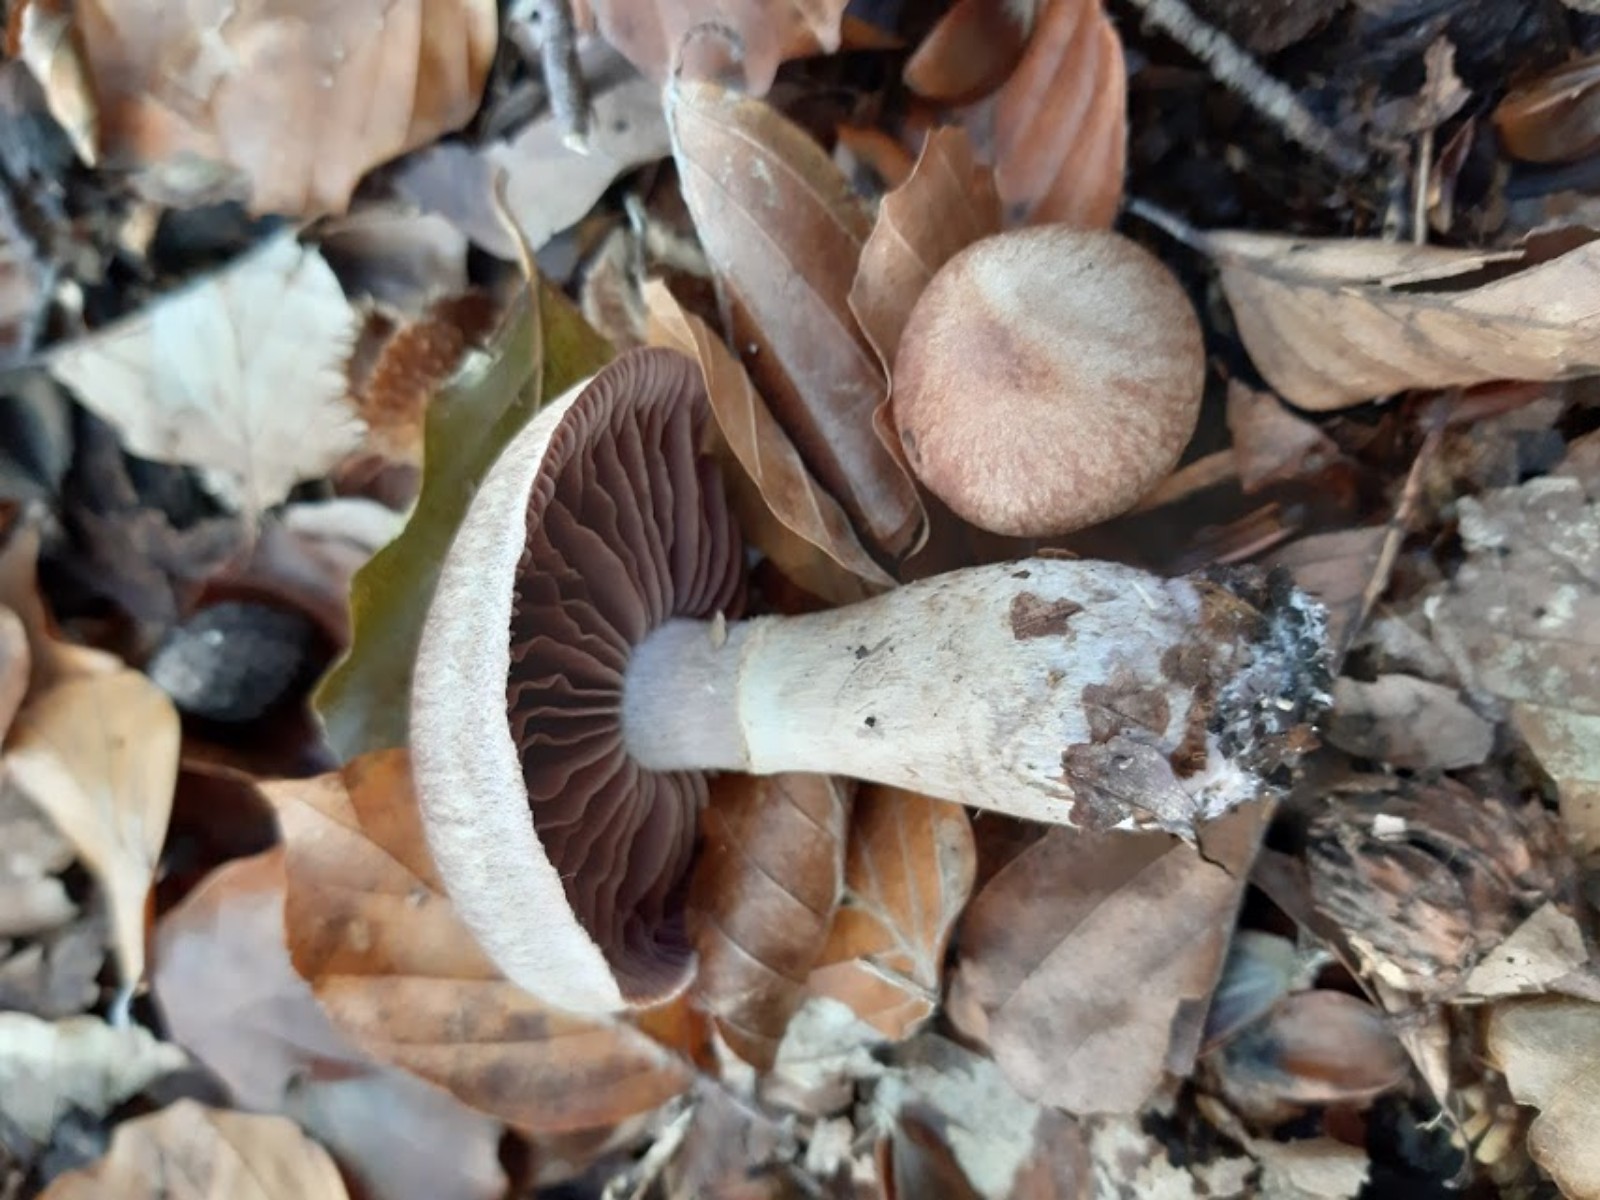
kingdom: Fungi
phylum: Basidiomycota
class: Agaricomycetes
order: Agaricales
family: Cortinariaceae
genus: Cortinarius
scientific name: Cortinarius torvus
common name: champignonagtig slørhat
